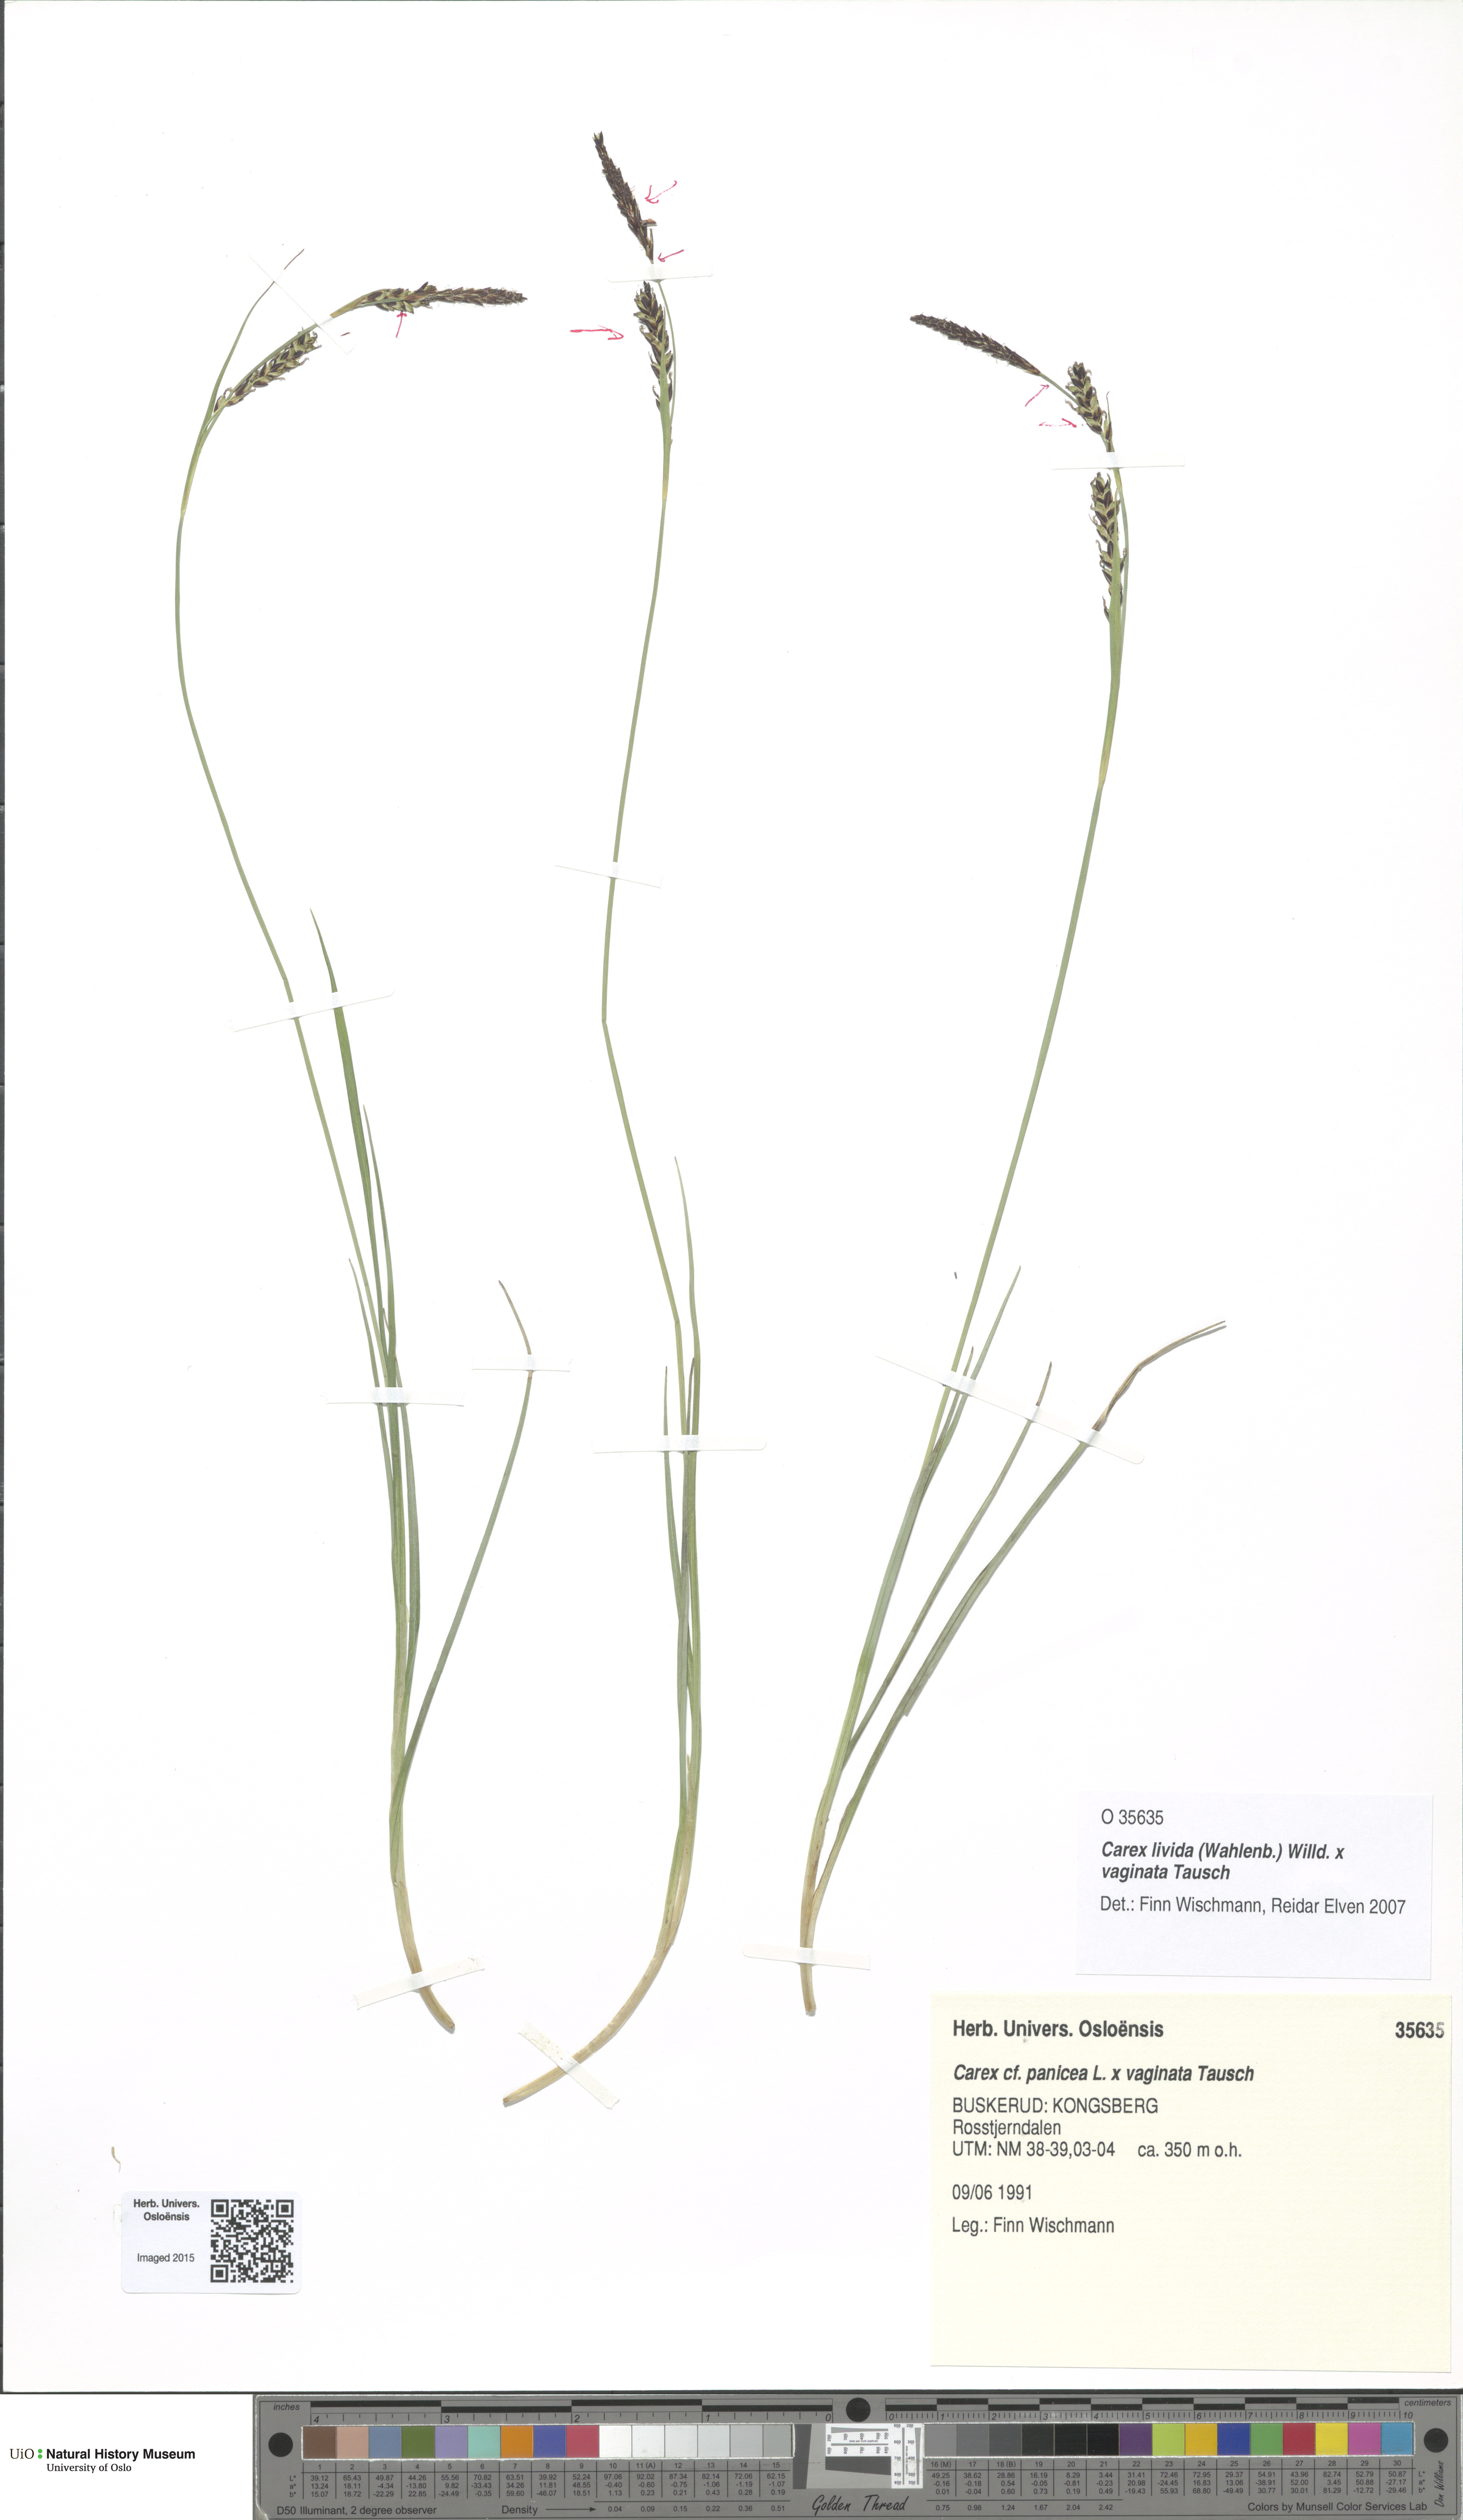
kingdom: Plantae
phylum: Tracheophyta
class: Liliopsida
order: Poales
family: Cyperaceae
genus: Carex
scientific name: Carex
